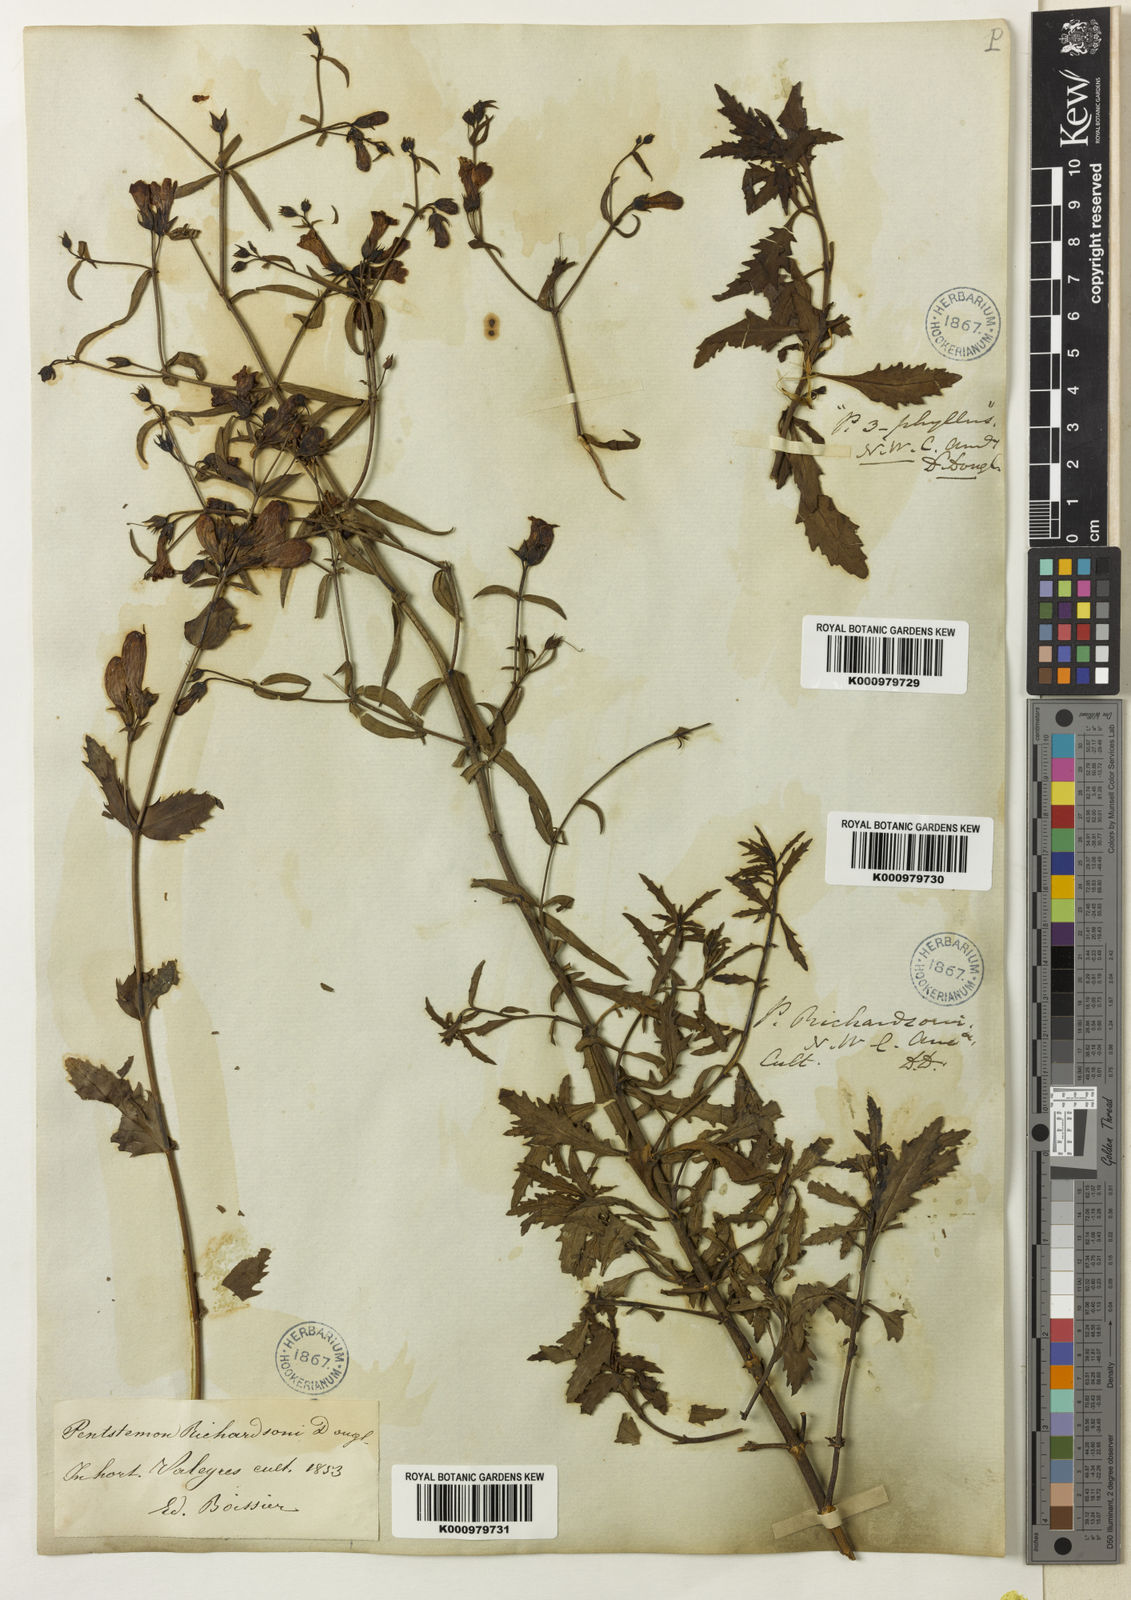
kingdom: Plantae
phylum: Tracheophyta
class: Magnoliopsida
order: Lamiales
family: Plantaginaceae
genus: Penstemon
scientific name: Penstemon triphyllus
